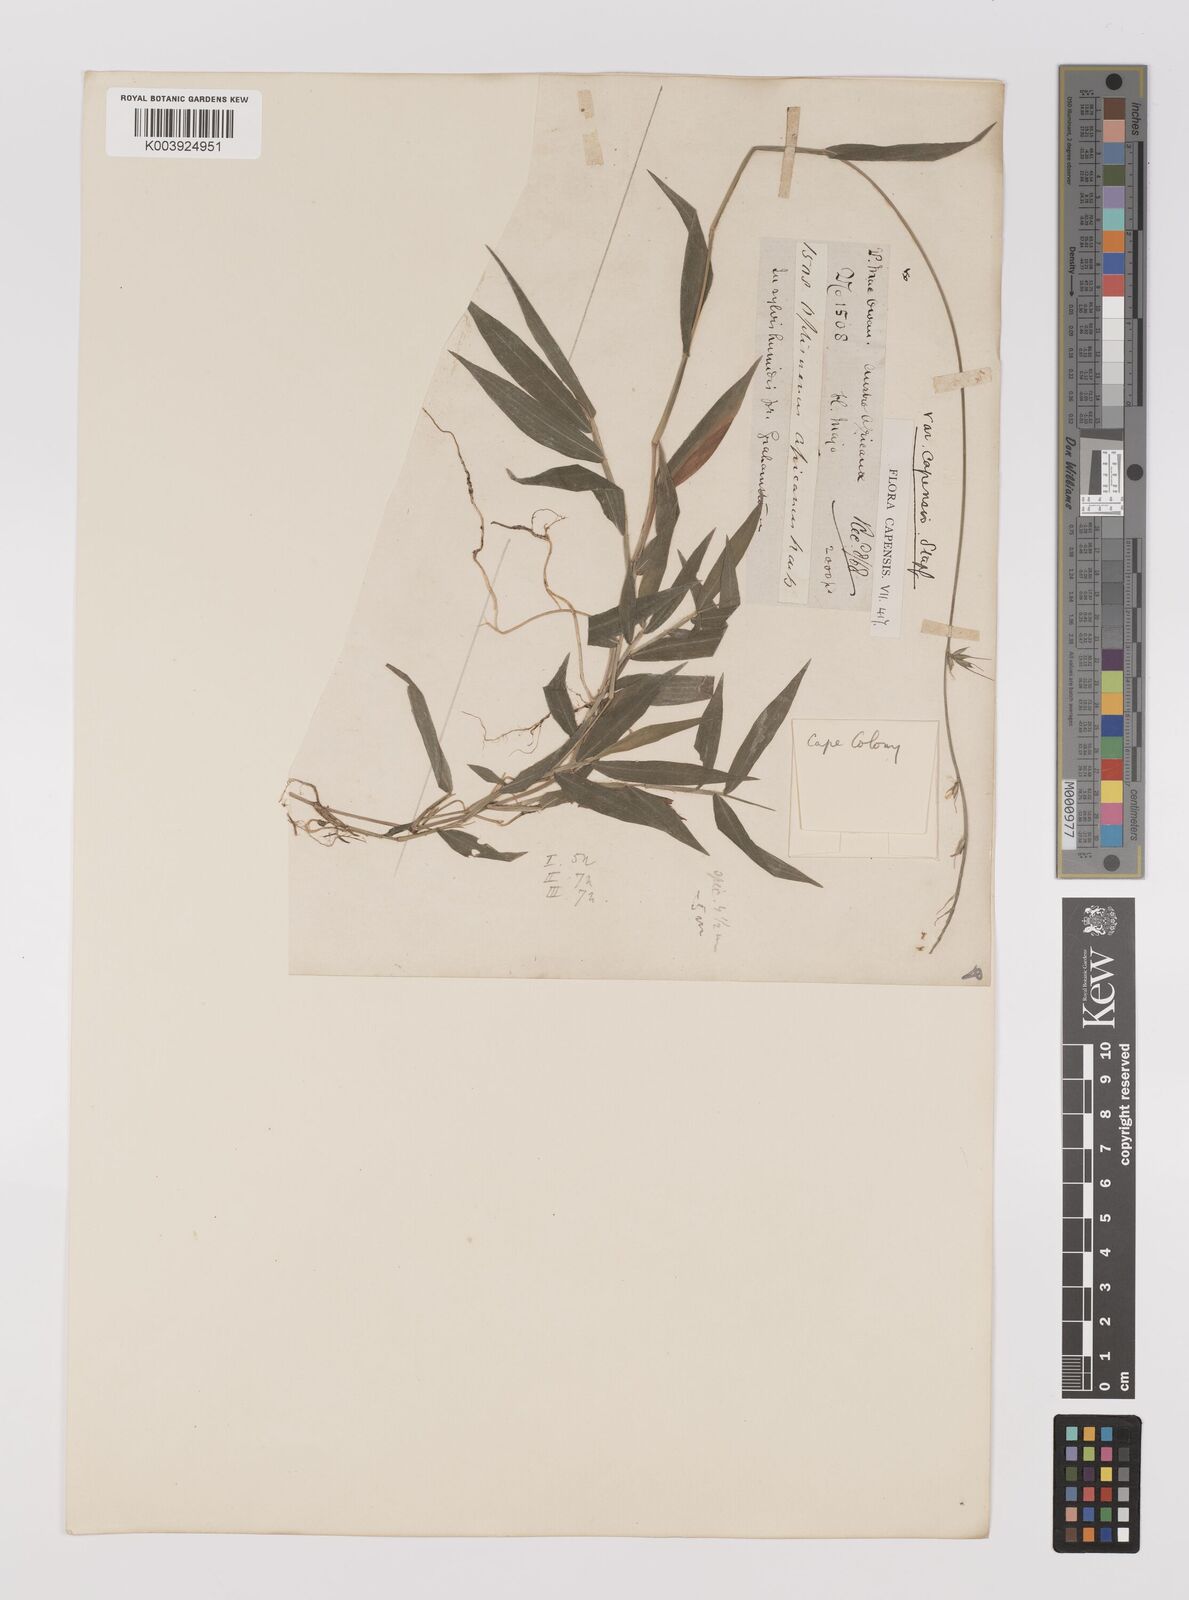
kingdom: Plantae
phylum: Tracheophyta
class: Liliopsida
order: Poales
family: Poaceae
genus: Oplismenus
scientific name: Oplismenus undulatifolius
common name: Wavyleaf basketgrass
